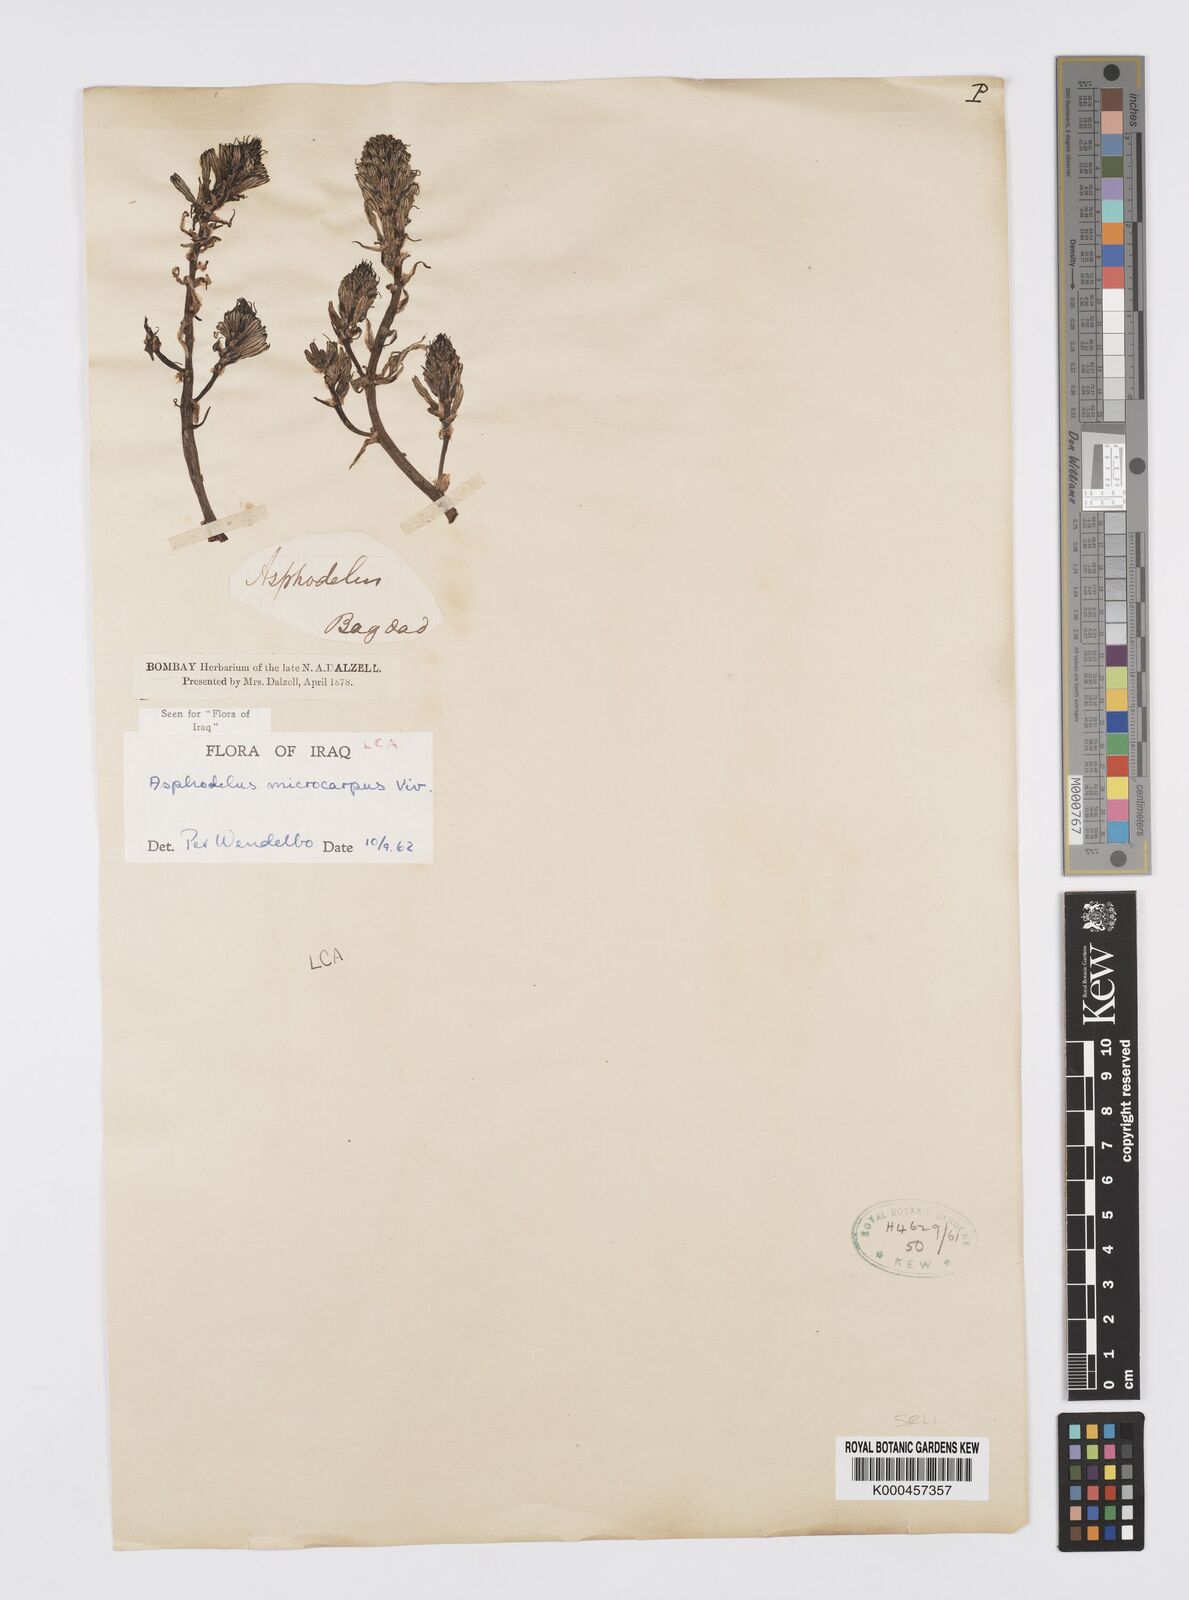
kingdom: Plantae
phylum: Tracheophyta
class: Liliopsida
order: Asparagales
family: Asphodelaceae
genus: Asphodelus
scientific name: Asphodelus aestivus
